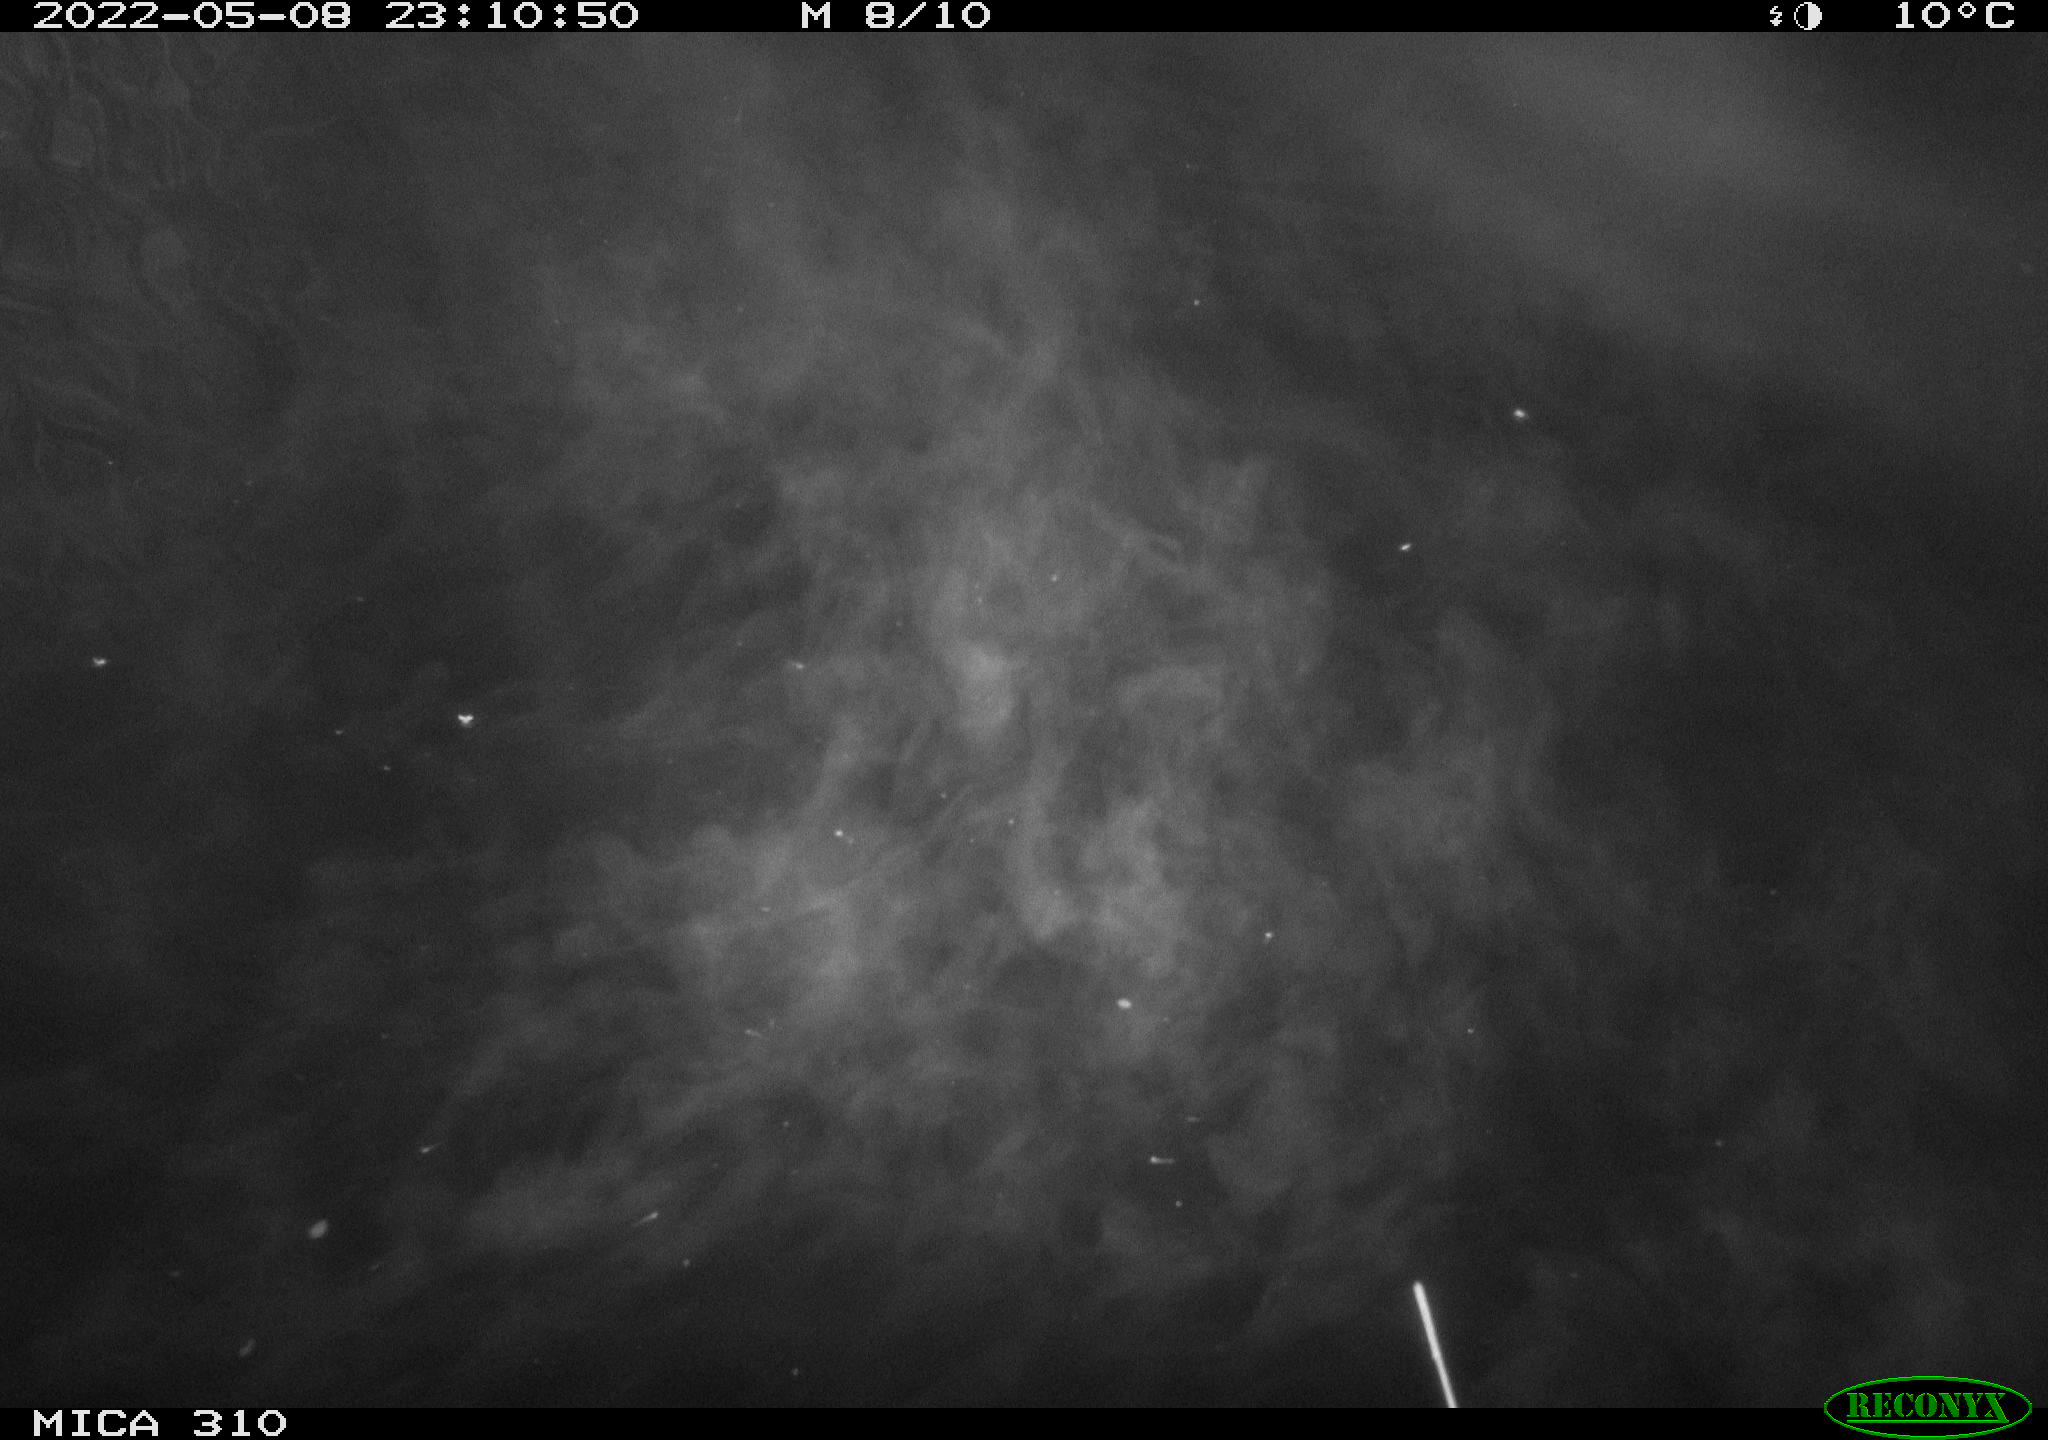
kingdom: Animalia
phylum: Chordata
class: Mammalia
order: Rodentia
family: Cricetidae
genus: Ondatra
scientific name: Ondatra zibethicus
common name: Muskrat
